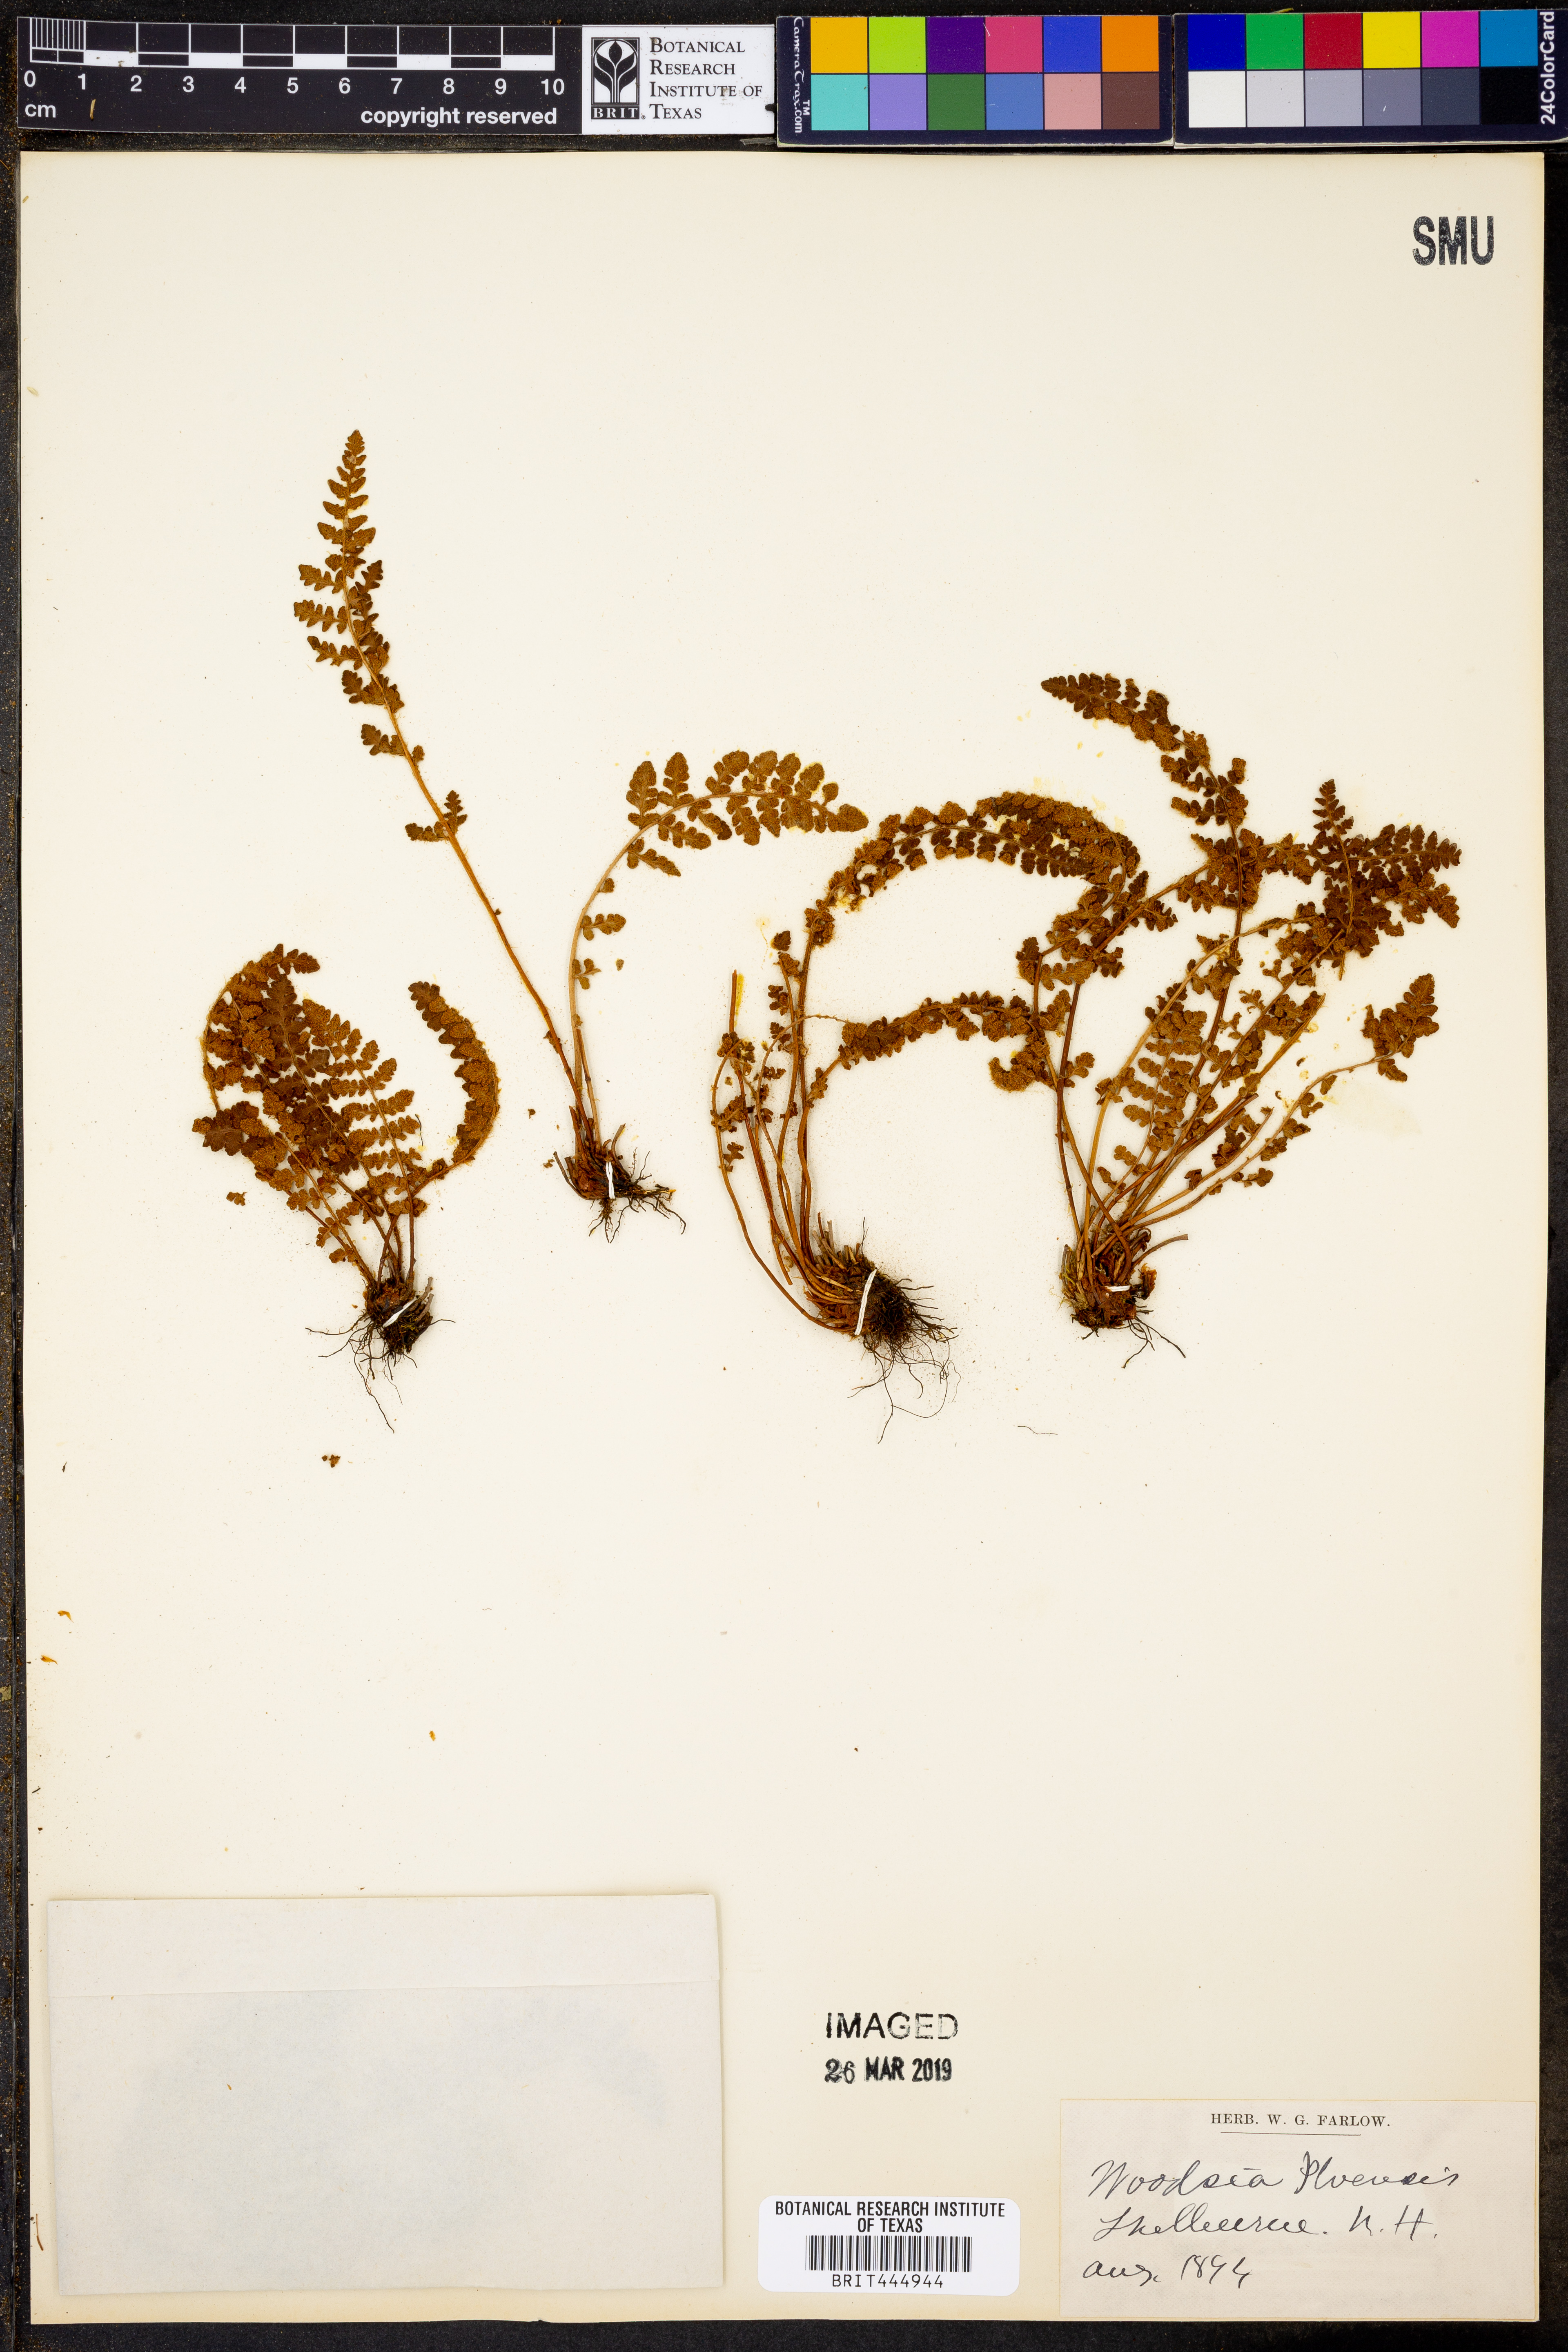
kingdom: Plantae
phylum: Tracheophyta
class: Polypodiopsida
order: Polypodiales
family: Woodsiaceae
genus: Woodsia
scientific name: Woodsia ilvensis
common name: Fragrant woodsia
